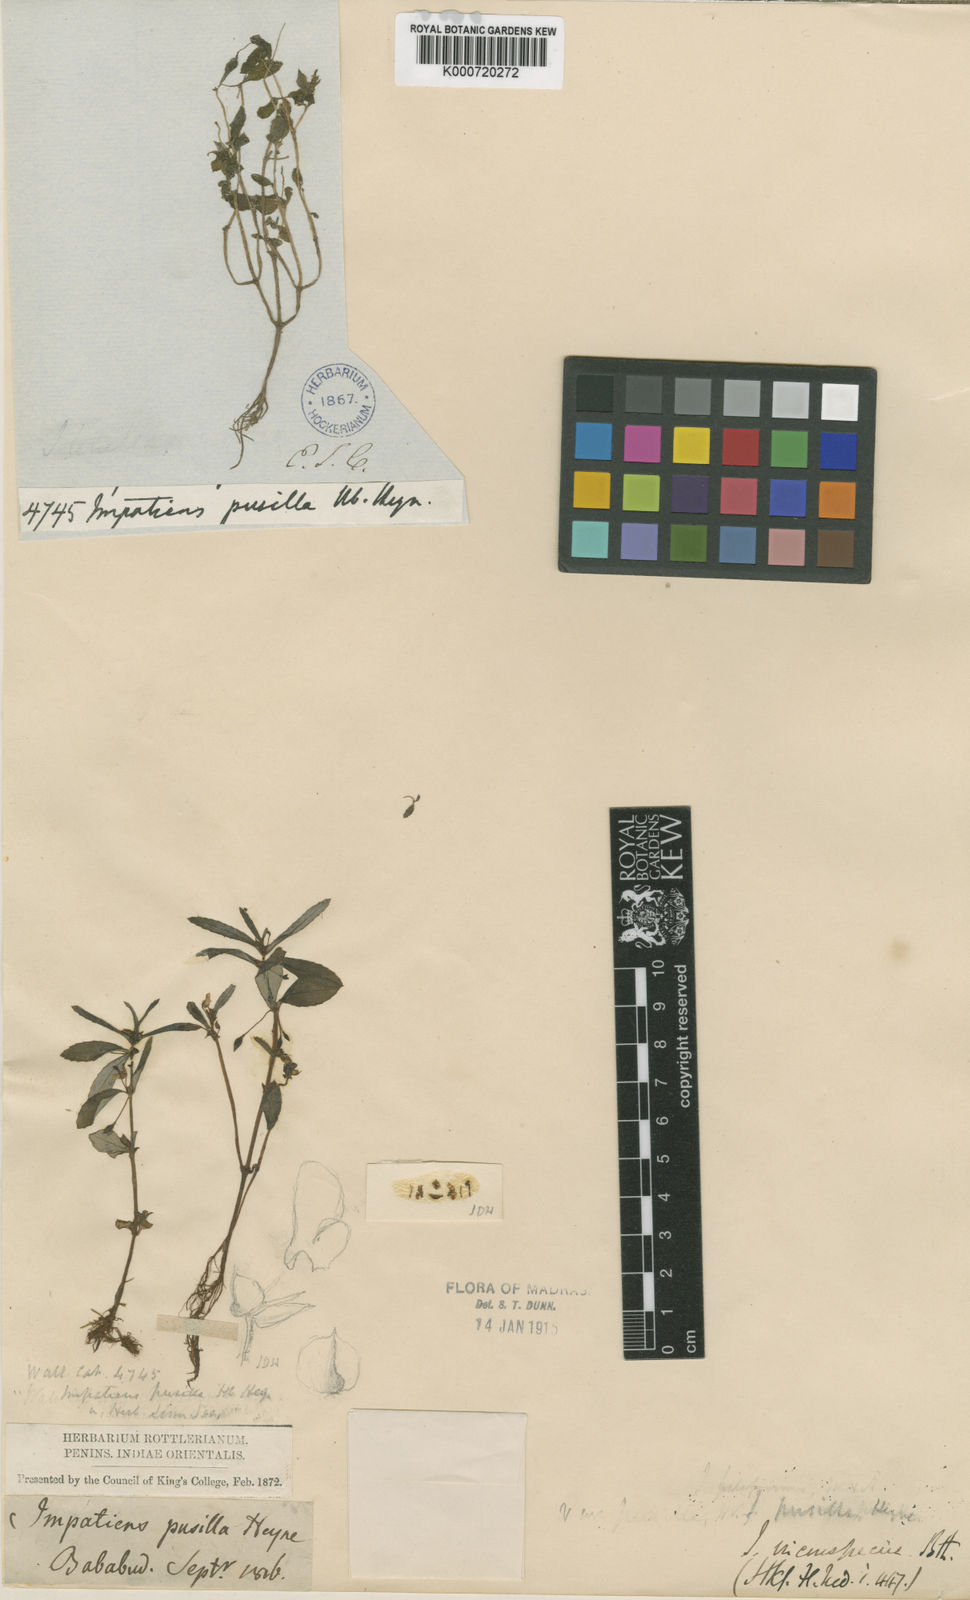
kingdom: Plantae
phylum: Tracheophyta
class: Magnoliopsida
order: Ericales
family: Balsaminaceae
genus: Impatiens
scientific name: Impatiens
